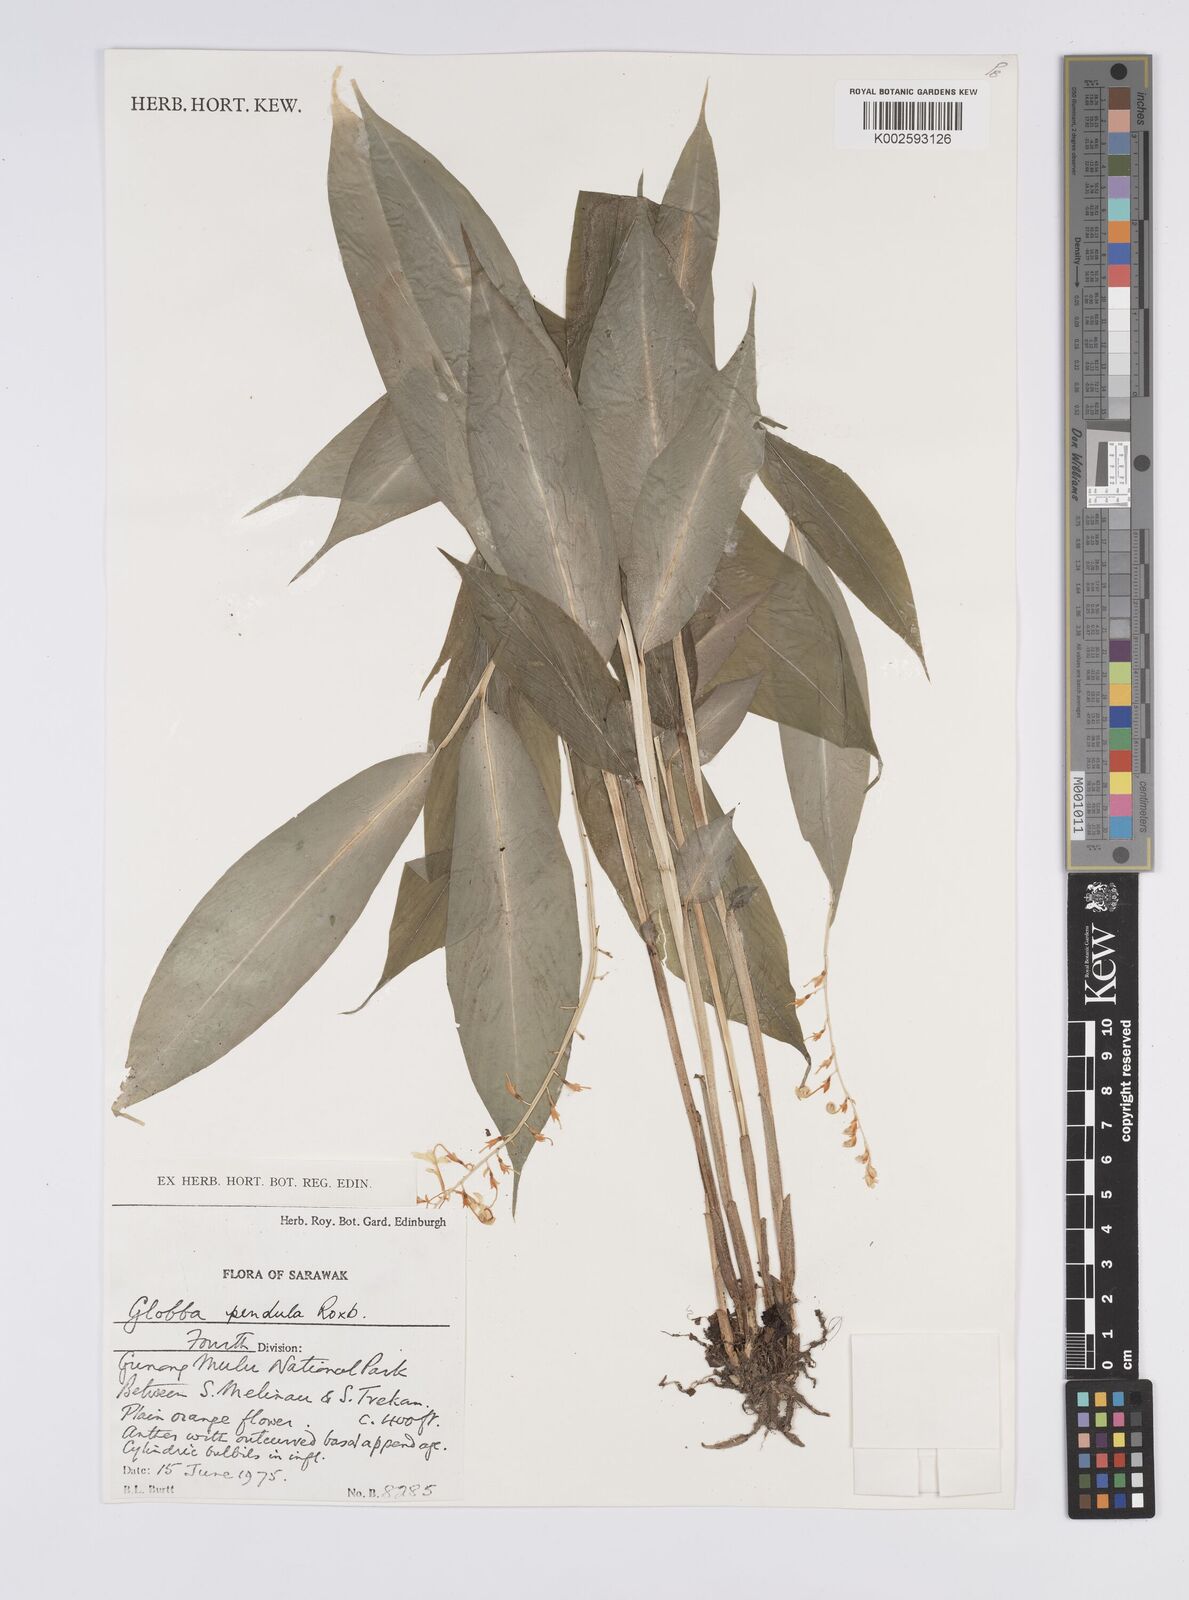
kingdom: Plantae
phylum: Tracheophyta
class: Liliopsida
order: Zingiberales
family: Zingiberaceae
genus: Globba
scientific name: Globba pendula
